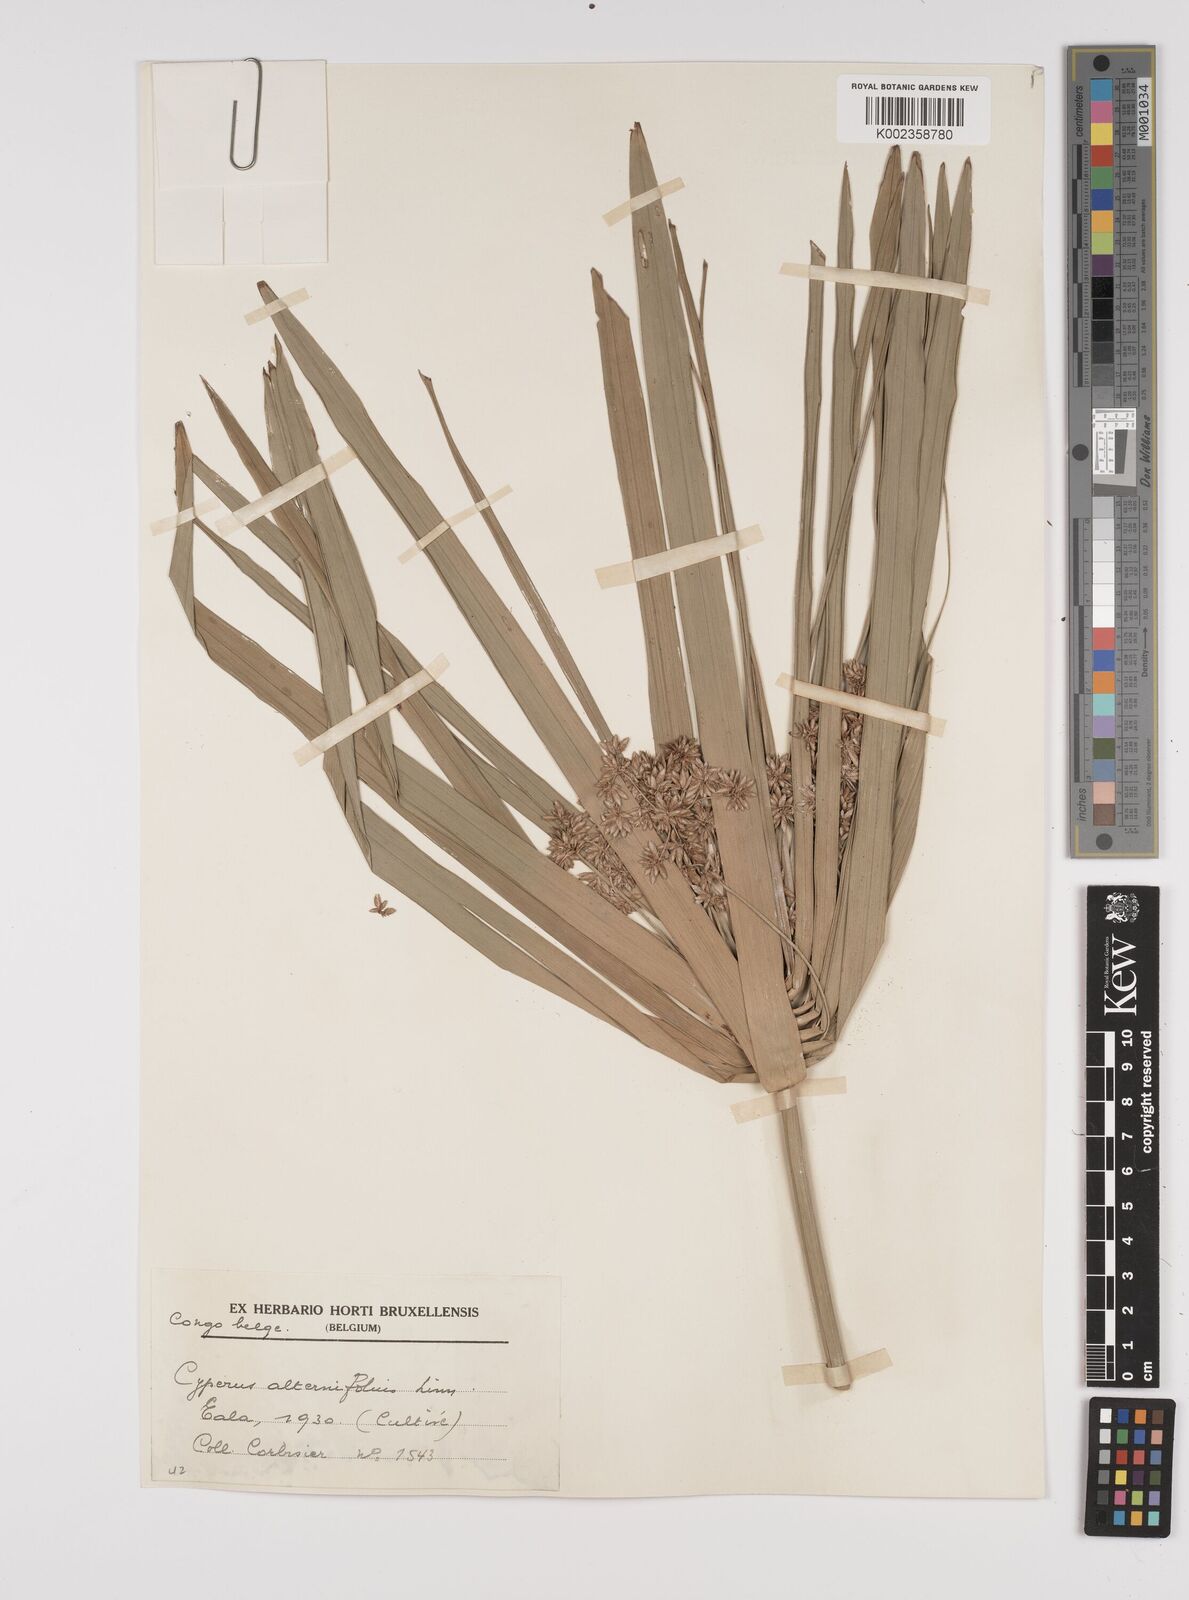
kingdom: Plantae
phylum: Tracheophyta
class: Liliopsida
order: Poales
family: Cyperaceae
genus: Cyperus
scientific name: Cyperus alternifolius
